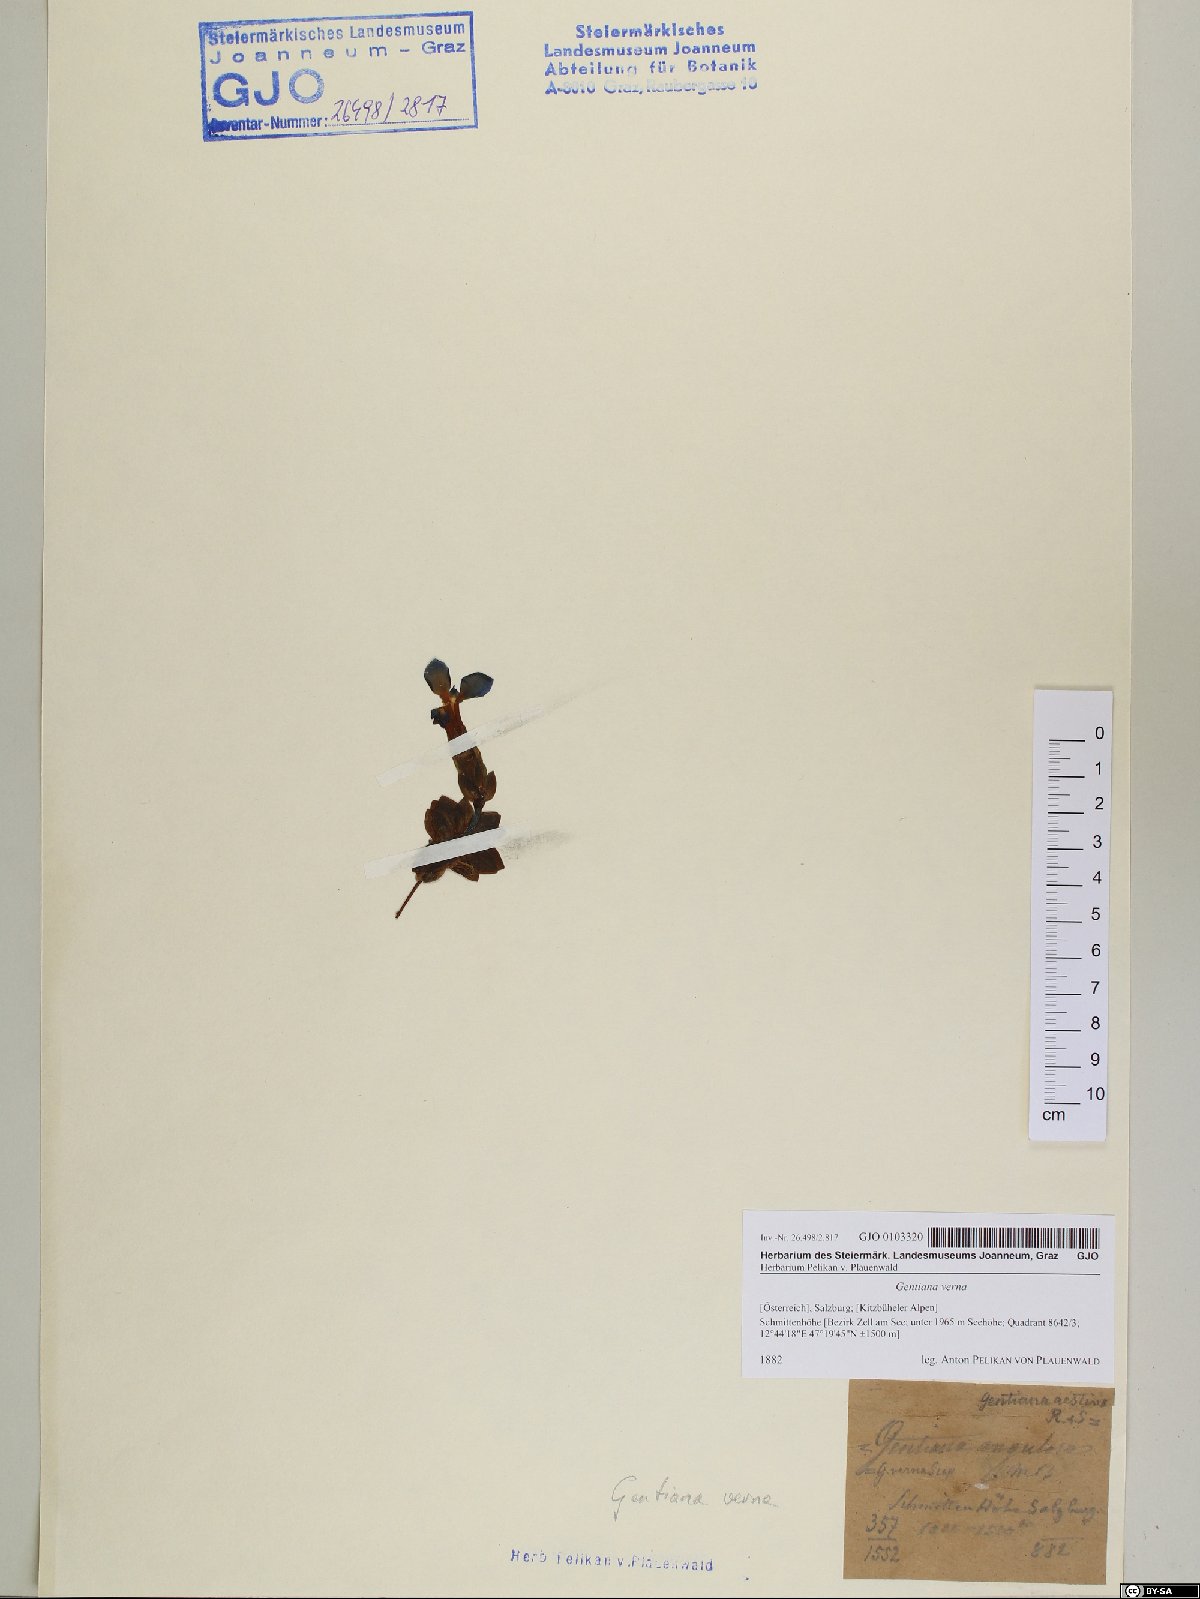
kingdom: Plantae
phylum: Tracheophyta
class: Magnoliopsida
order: Gentianales
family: Gentianaceae
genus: Gentiana
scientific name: Gentiana verna
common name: Spring gentian
